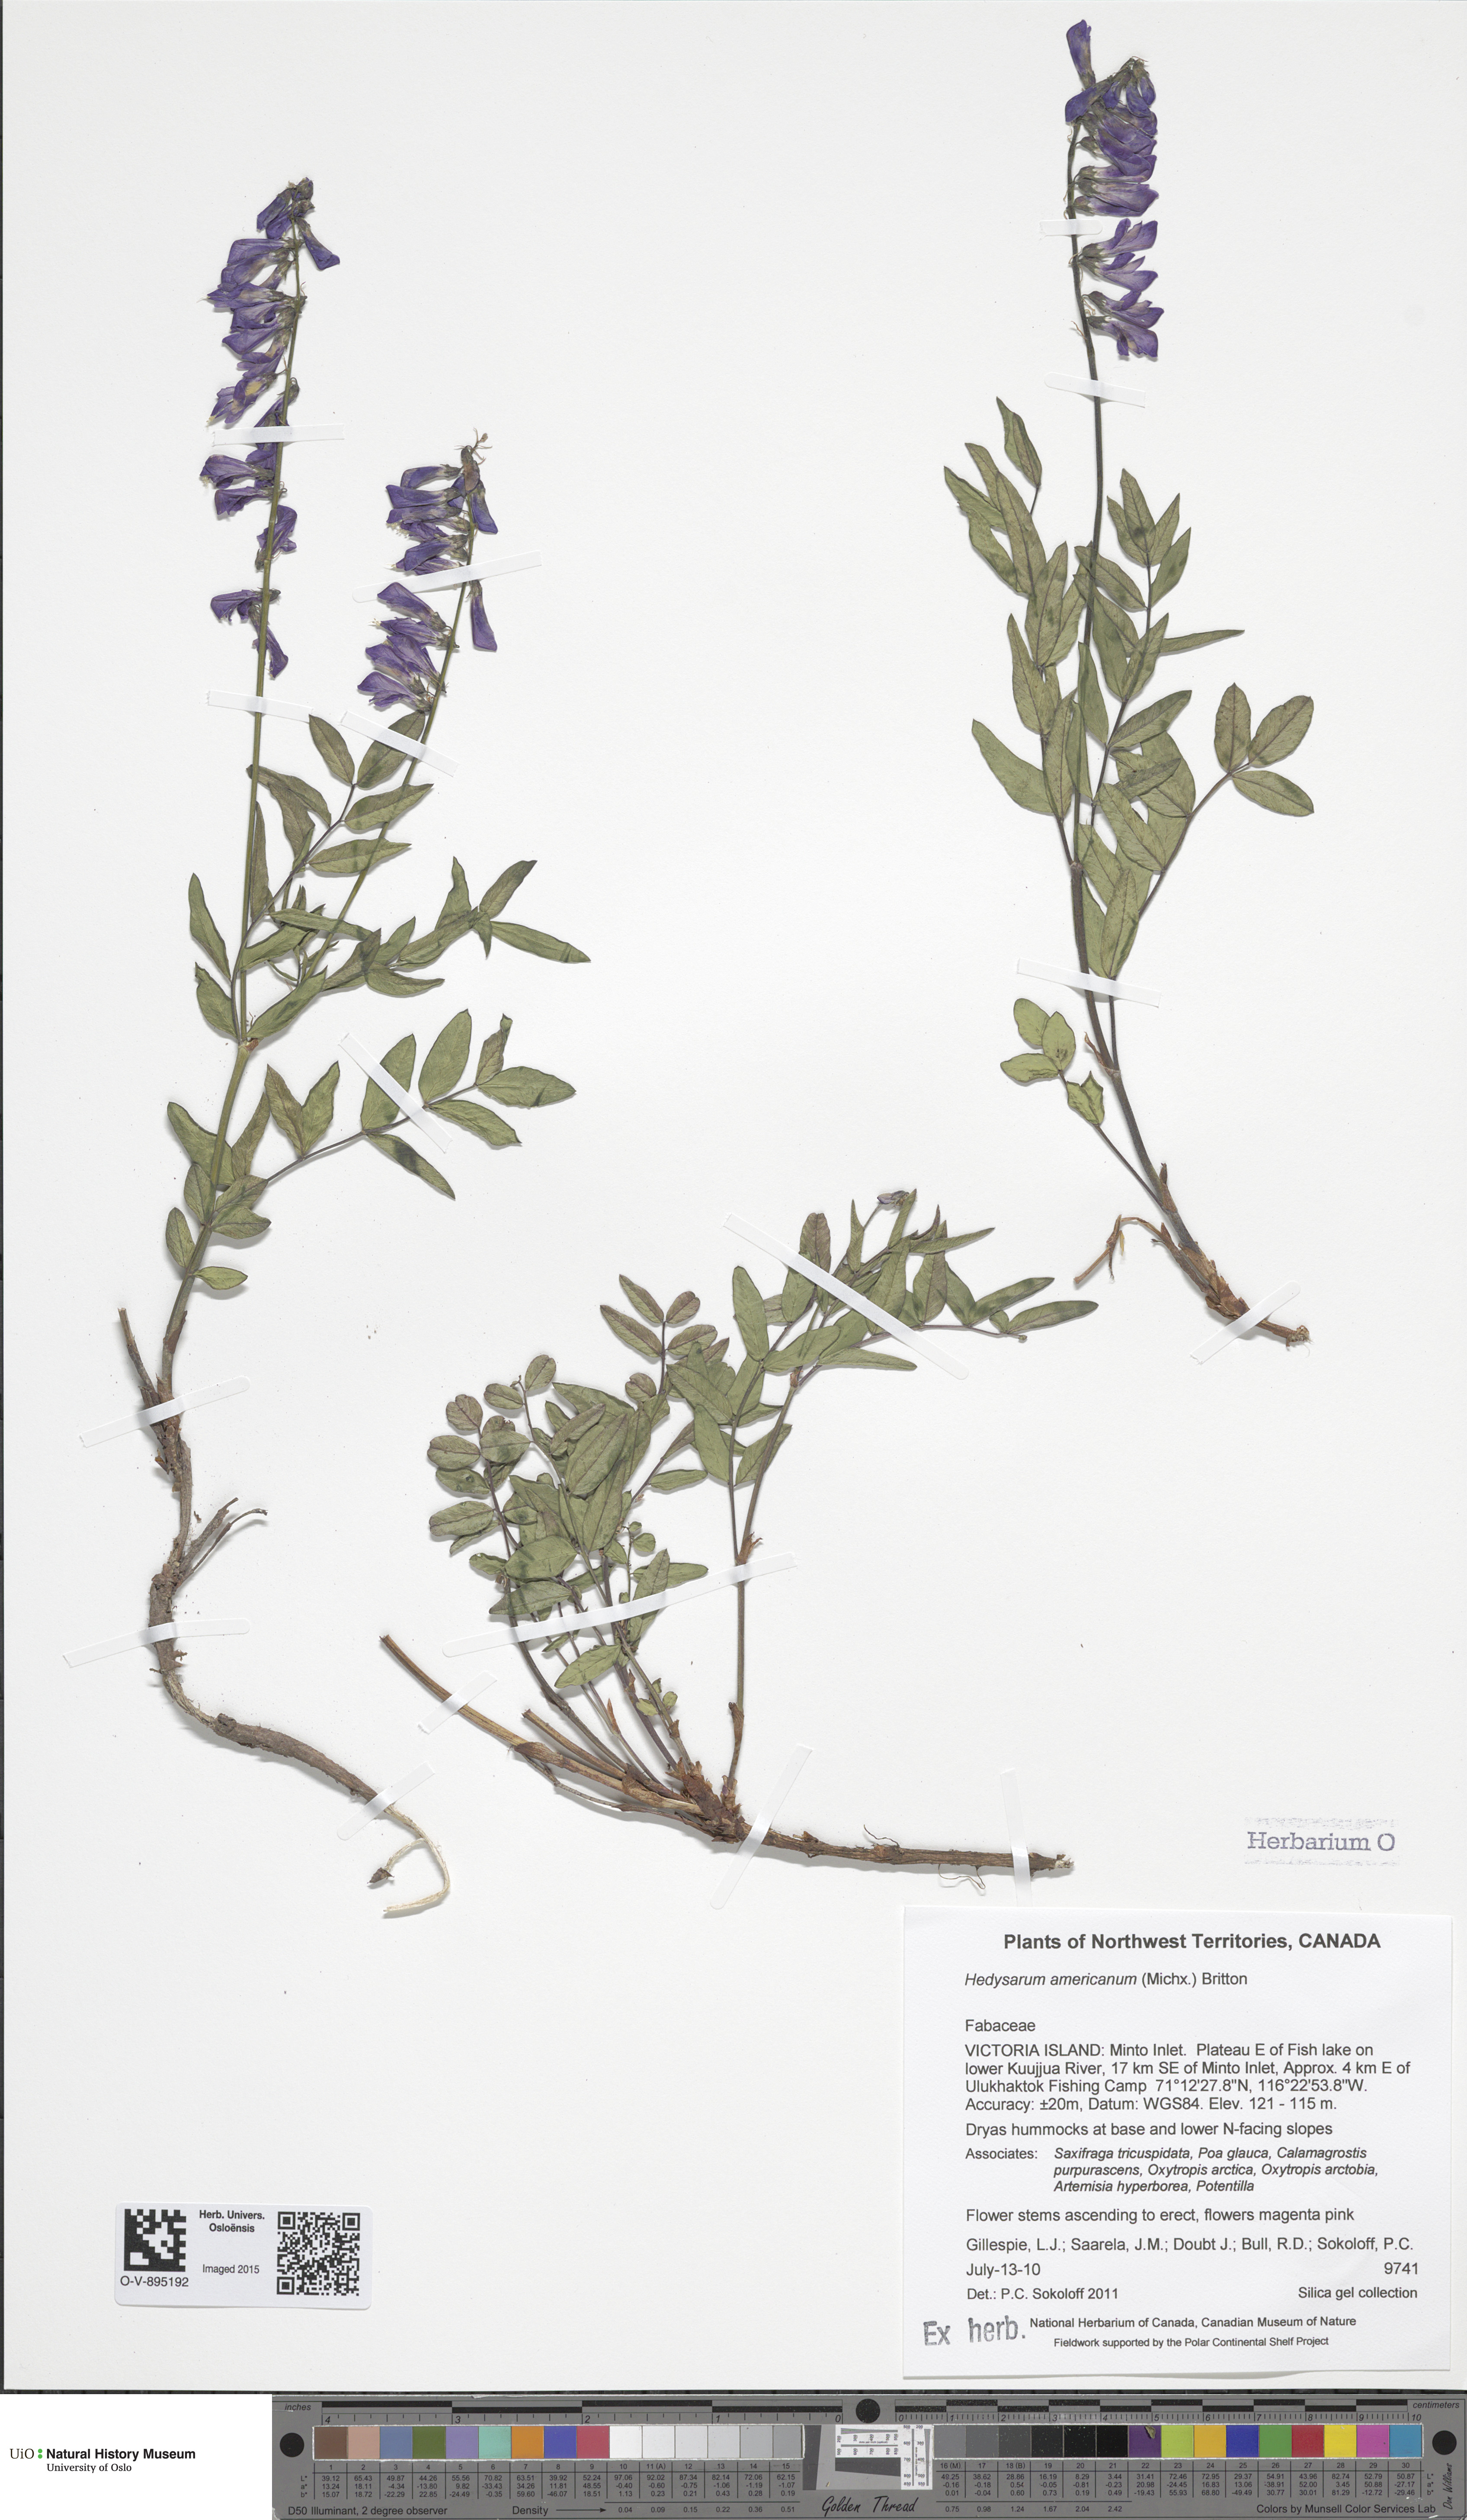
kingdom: Plantae
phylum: Tracheophyta
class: Magnoliopsida
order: Fabales
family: Fabaceae
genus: Hedysarum
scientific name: Hedysarum americanum
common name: Alpine hedysarum
